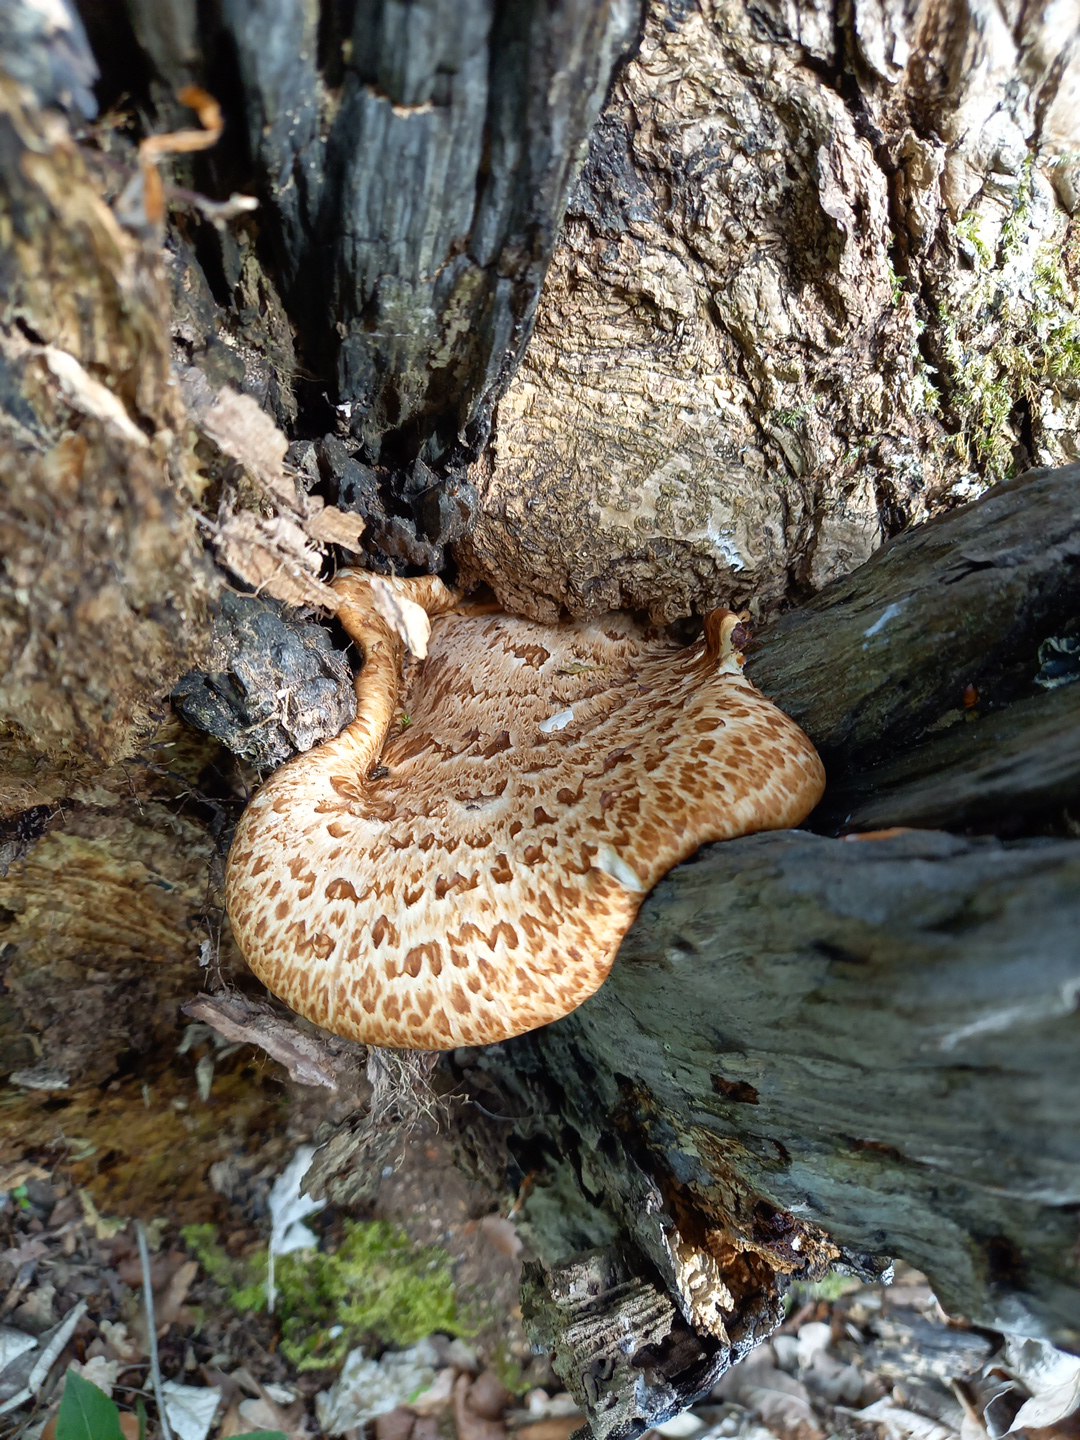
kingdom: Fungi
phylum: Basidiomycota
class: Agaricomycetes
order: Polyporales
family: Polyporaceae
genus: Cerioporus
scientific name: Cerioporus squamosus
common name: skællet stilkporesvamp
